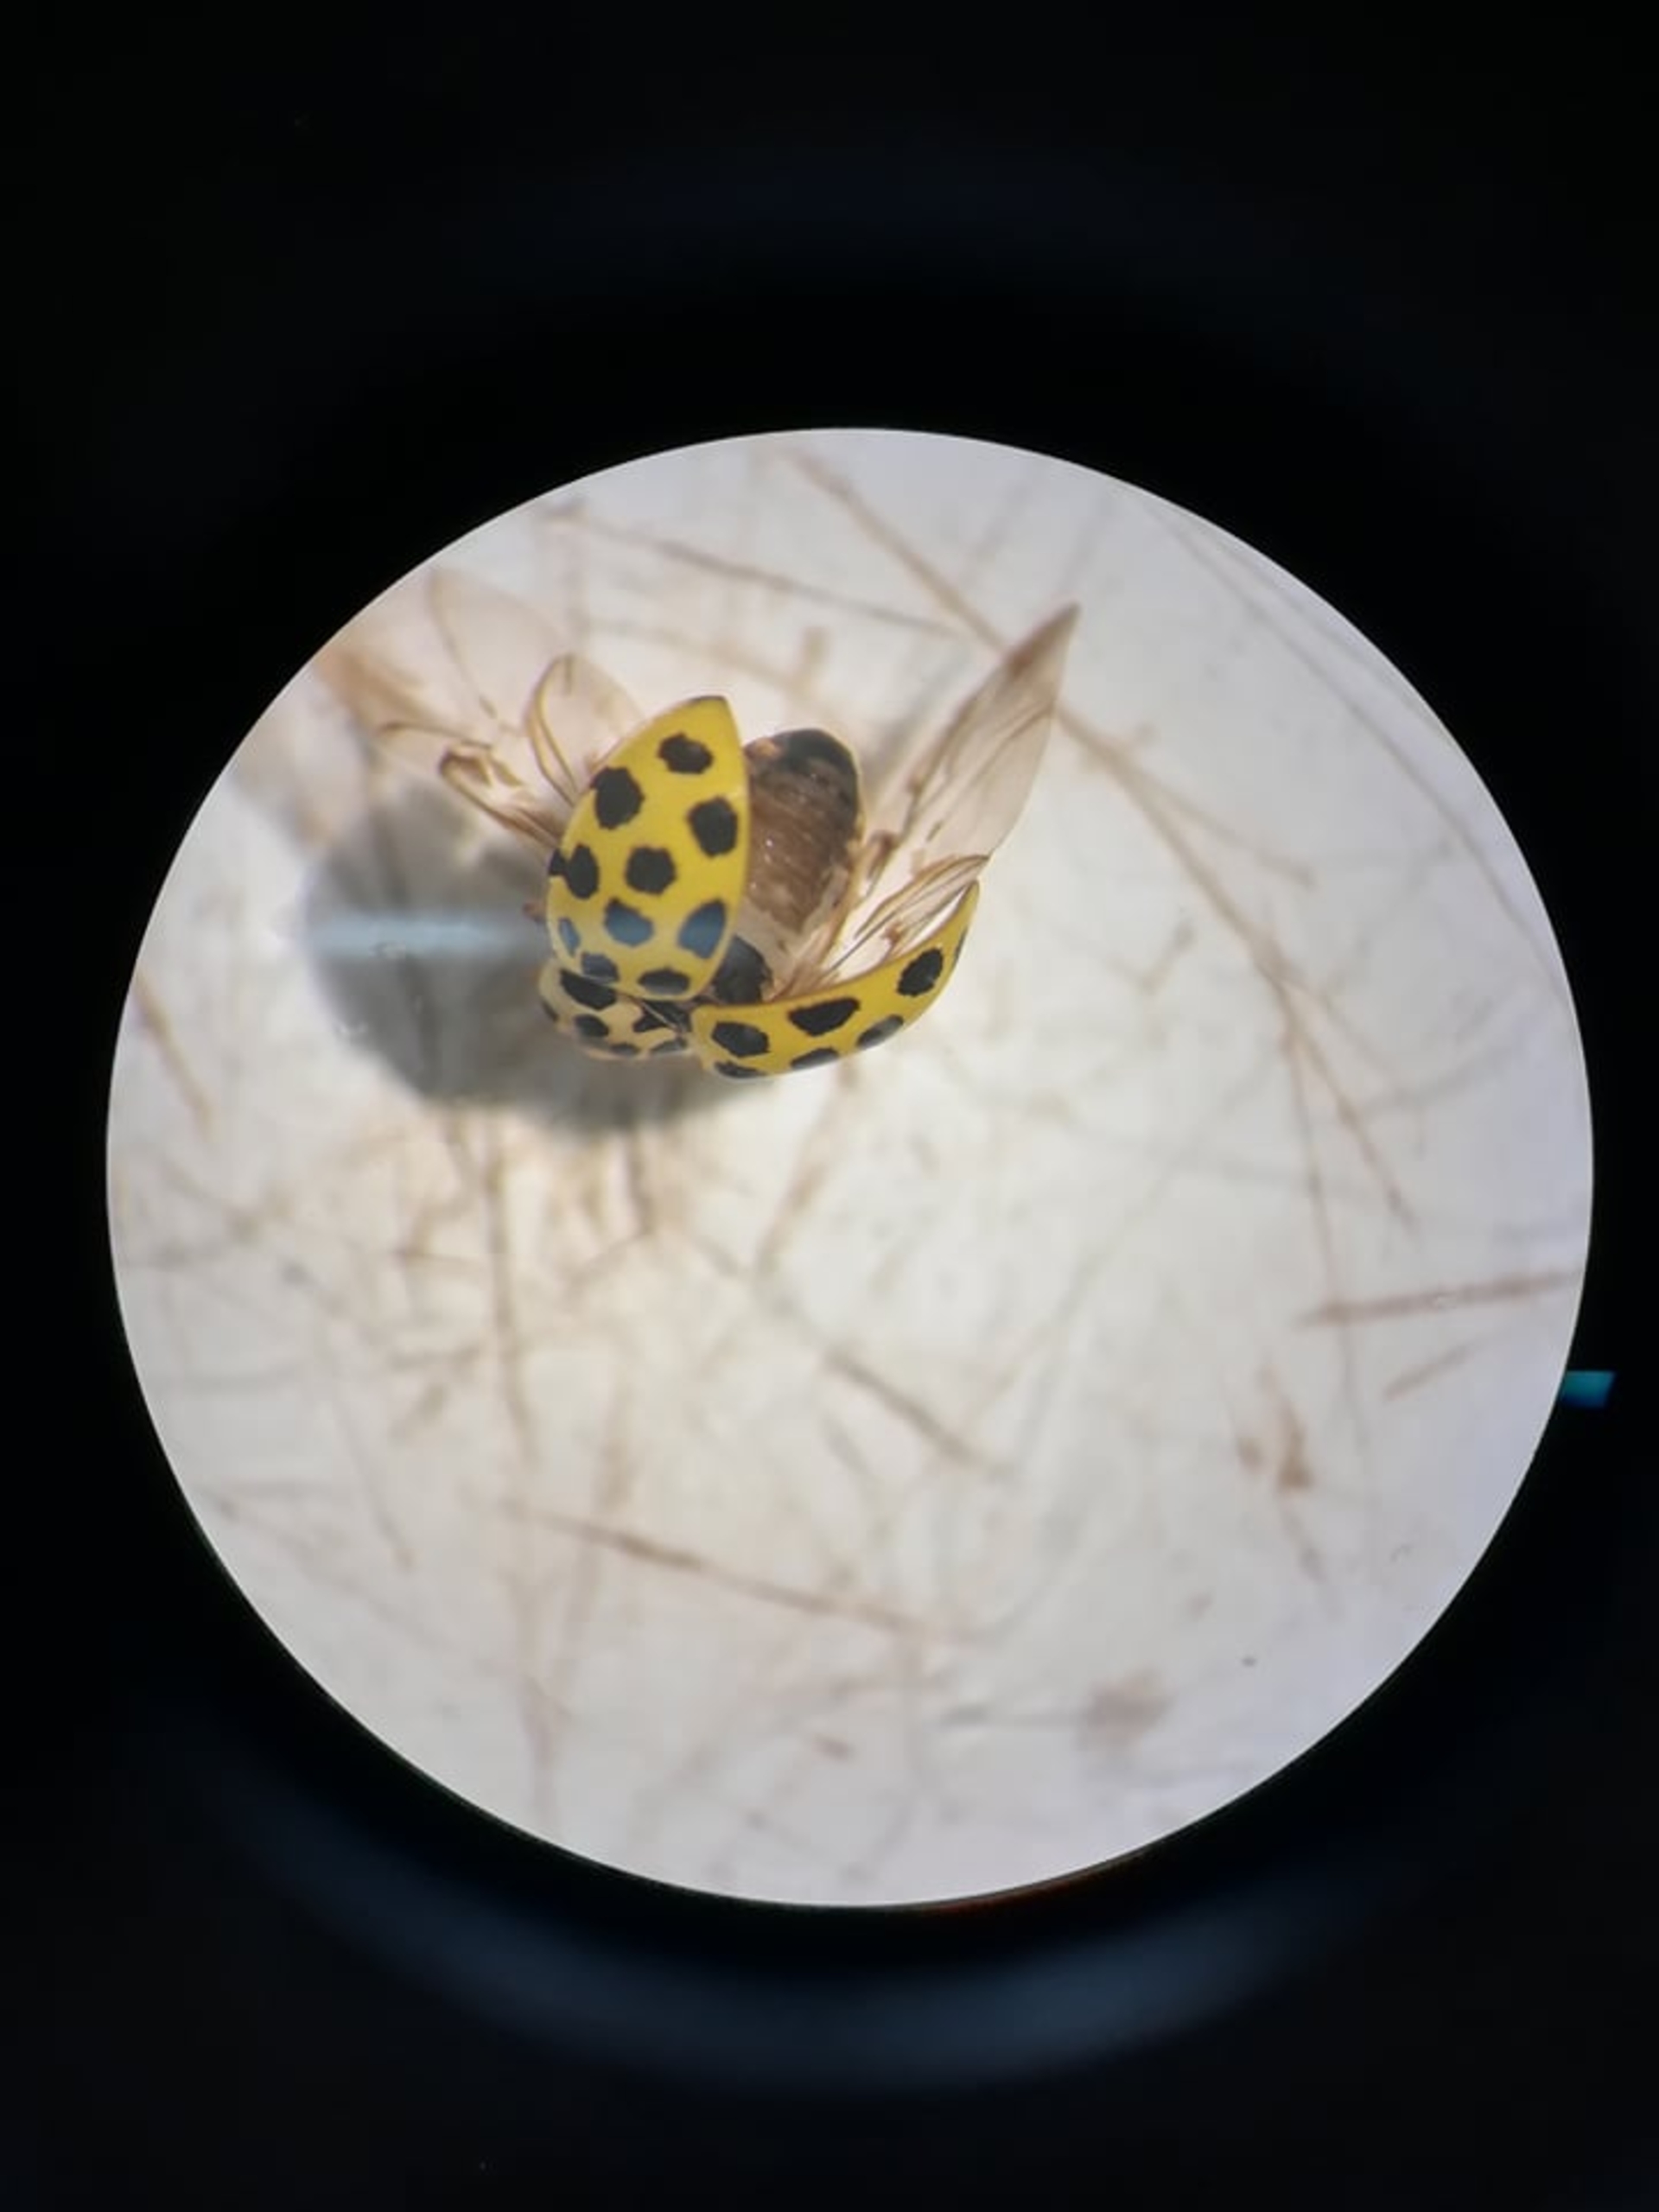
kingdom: Animalia
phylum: Arthropoda
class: Insecta
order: Coleoptera
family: Coccinellidae
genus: Psyllobora
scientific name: Psyllobora vigintiduopunctata
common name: Toogtyveplettet mariehøne
